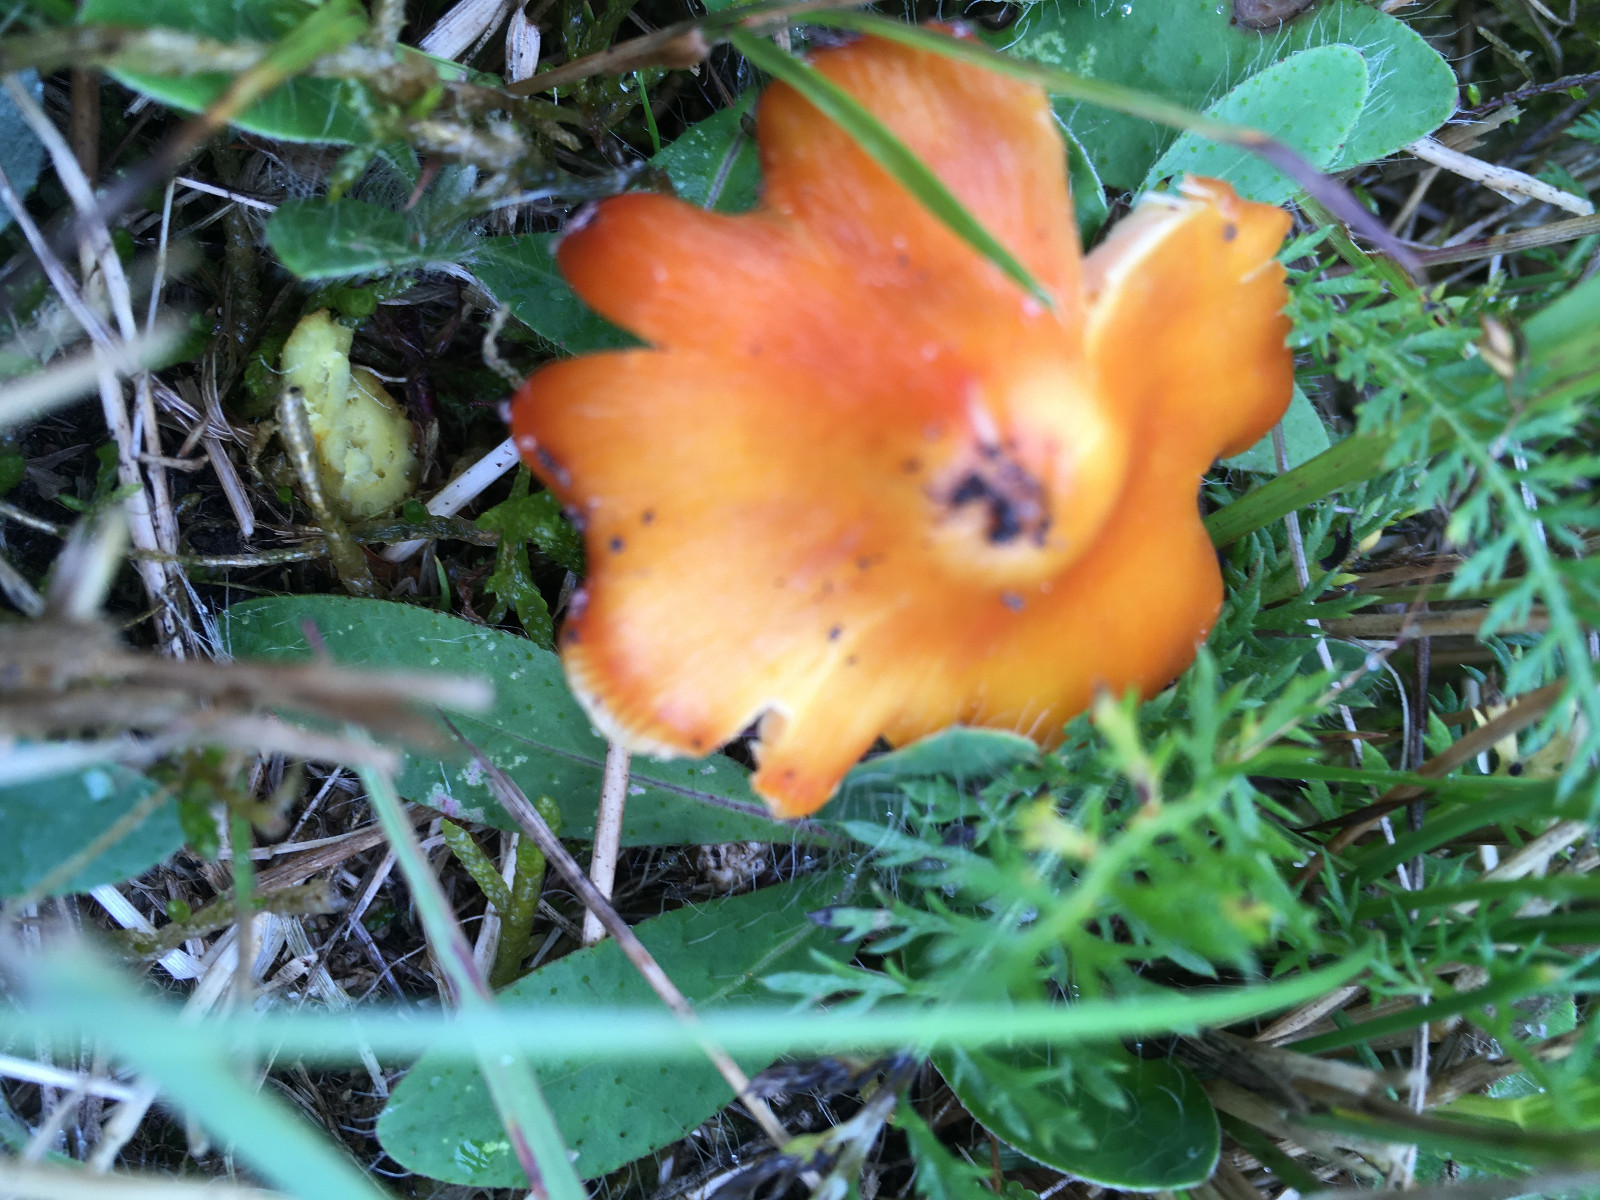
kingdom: Fungi
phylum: Basidiomycota
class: Agaricomycetes
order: Agaricales
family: Hygrophoraceae
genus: Hygrocybe
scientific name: Hygrocybe conica
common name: kegle-vokshat
